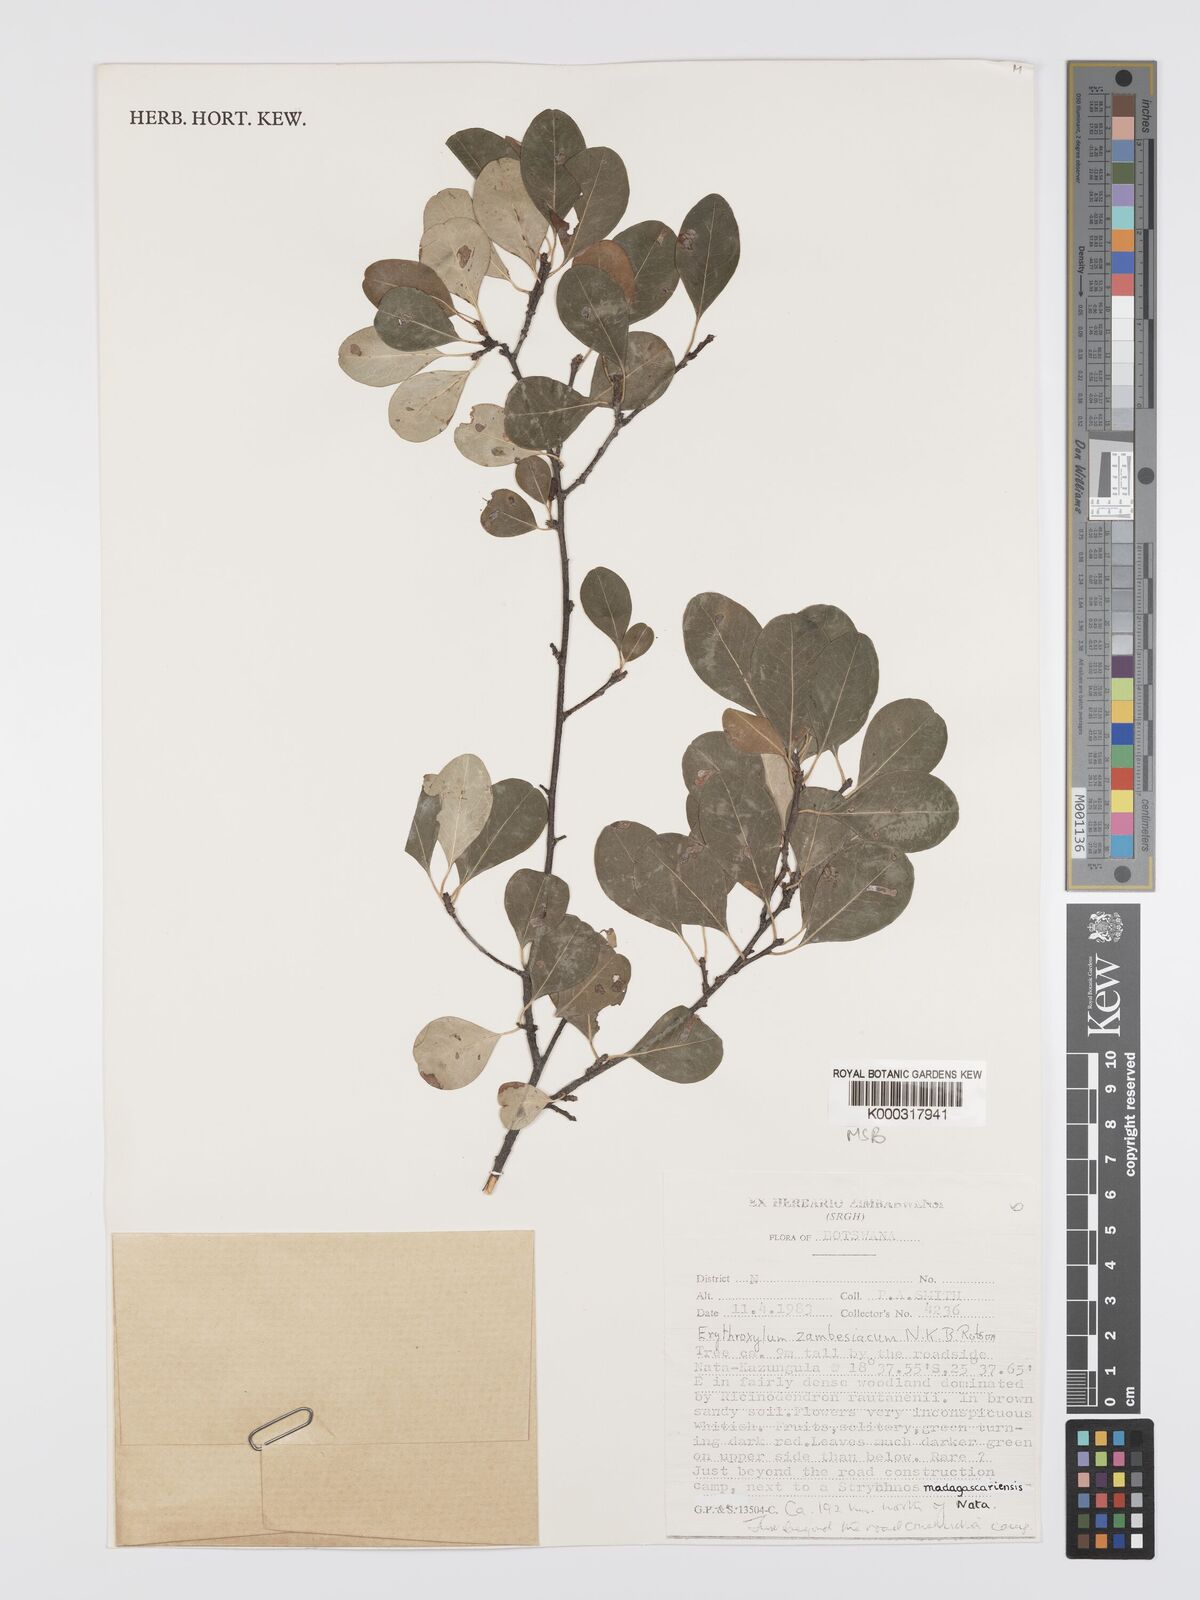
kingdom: Plantae
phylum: Tracheophyta
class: Magnoliopsida
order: Malpighiales
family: Erythroxylaceae
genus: Erythroxylum
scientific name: Erythroxylum zambesiacum
